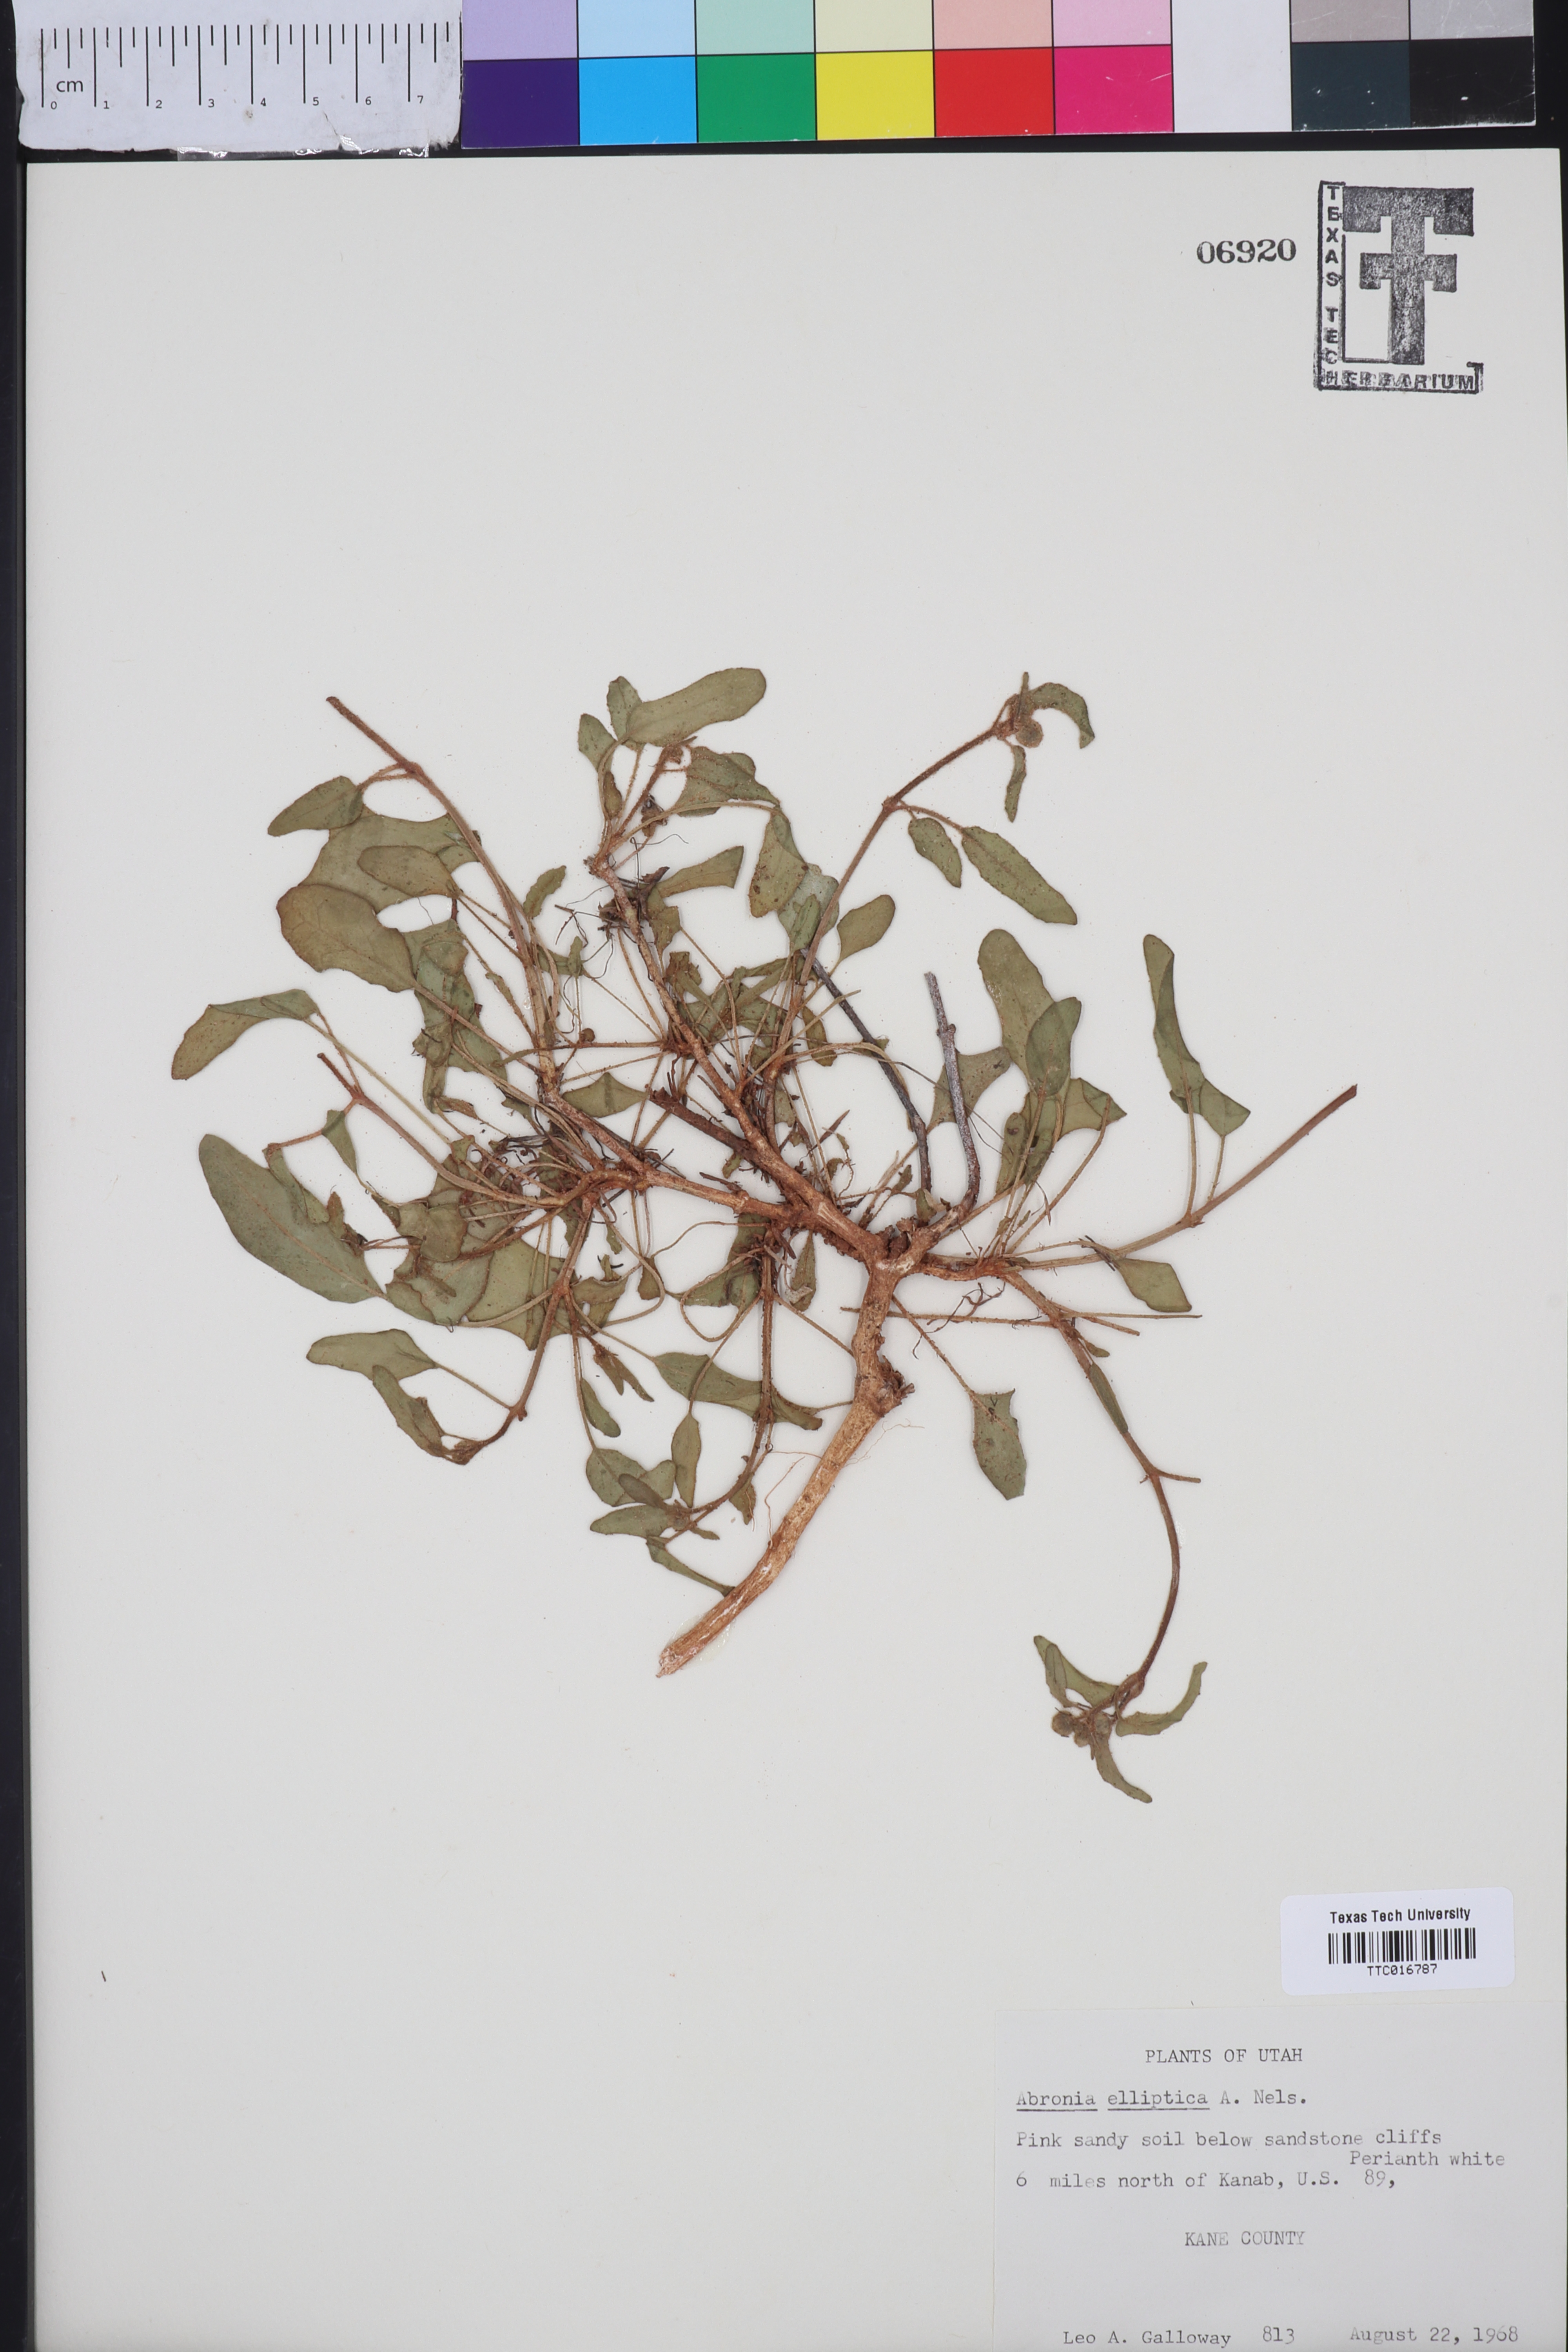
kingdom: Plantae
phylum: Tracheophyta
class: Magnoliopsida
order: Caryophyllales
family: Nyctaginaceae
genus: Abronia
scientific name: Abronia elliptica
